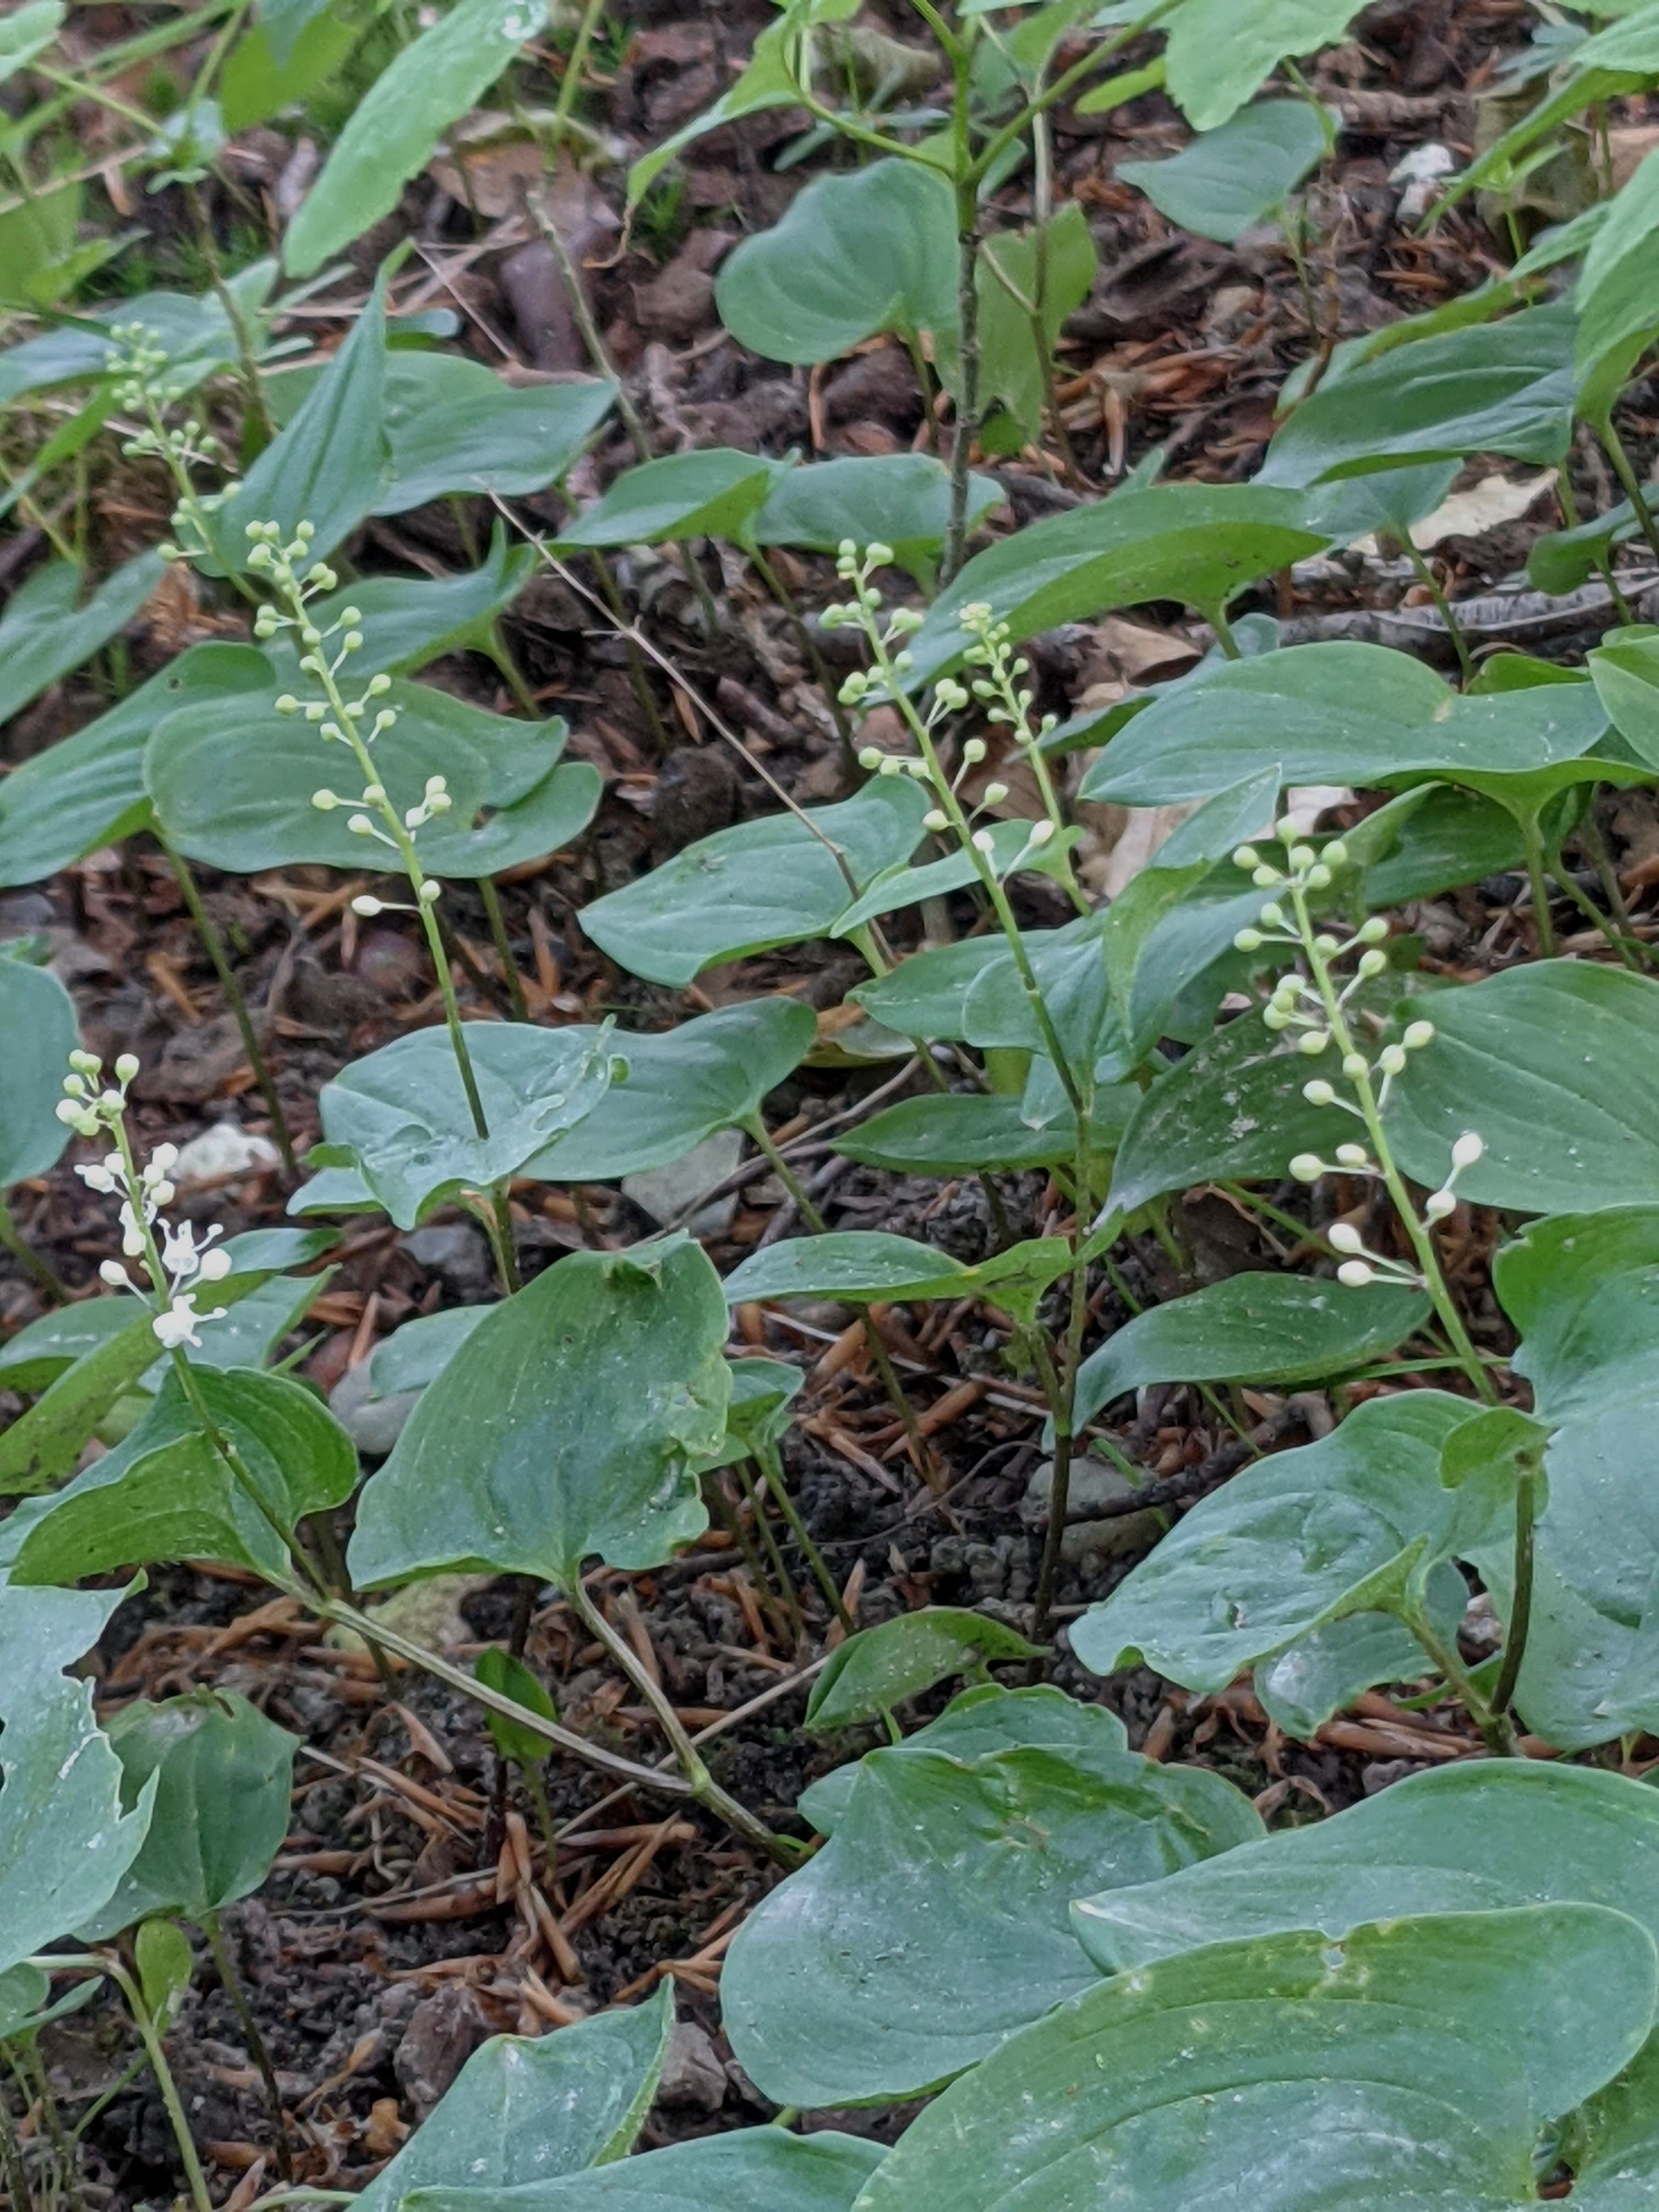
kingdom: Plantae
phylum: Tracheophyta
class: Liliopsida
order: Asparagales
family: Asparagaceae
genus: Maianthemum
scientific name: Maianthemum bifolium
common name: Majblomst
